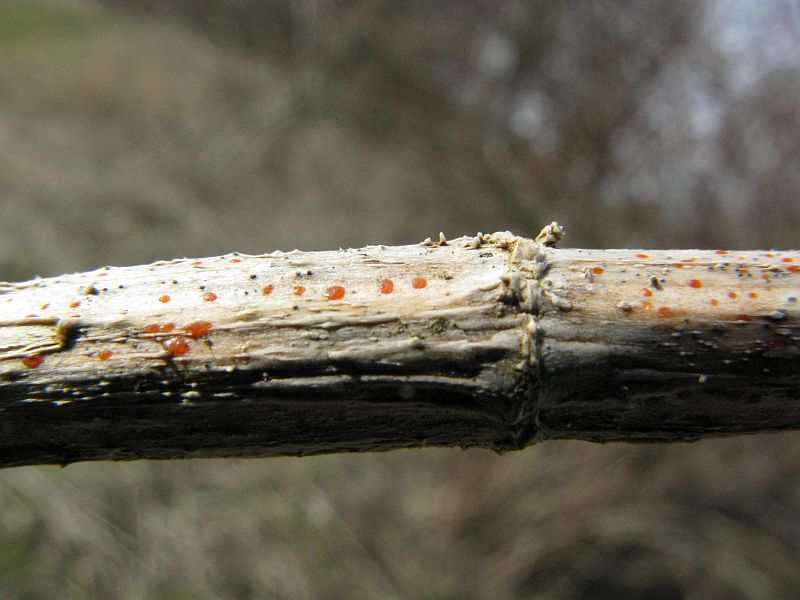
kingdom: Fungi
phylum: Ascomycota
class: Leotiomycetes
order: Helotiales
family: Calloriaceae
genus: Calloria
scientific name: Calloria urticae
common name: nælde-orangeskive
